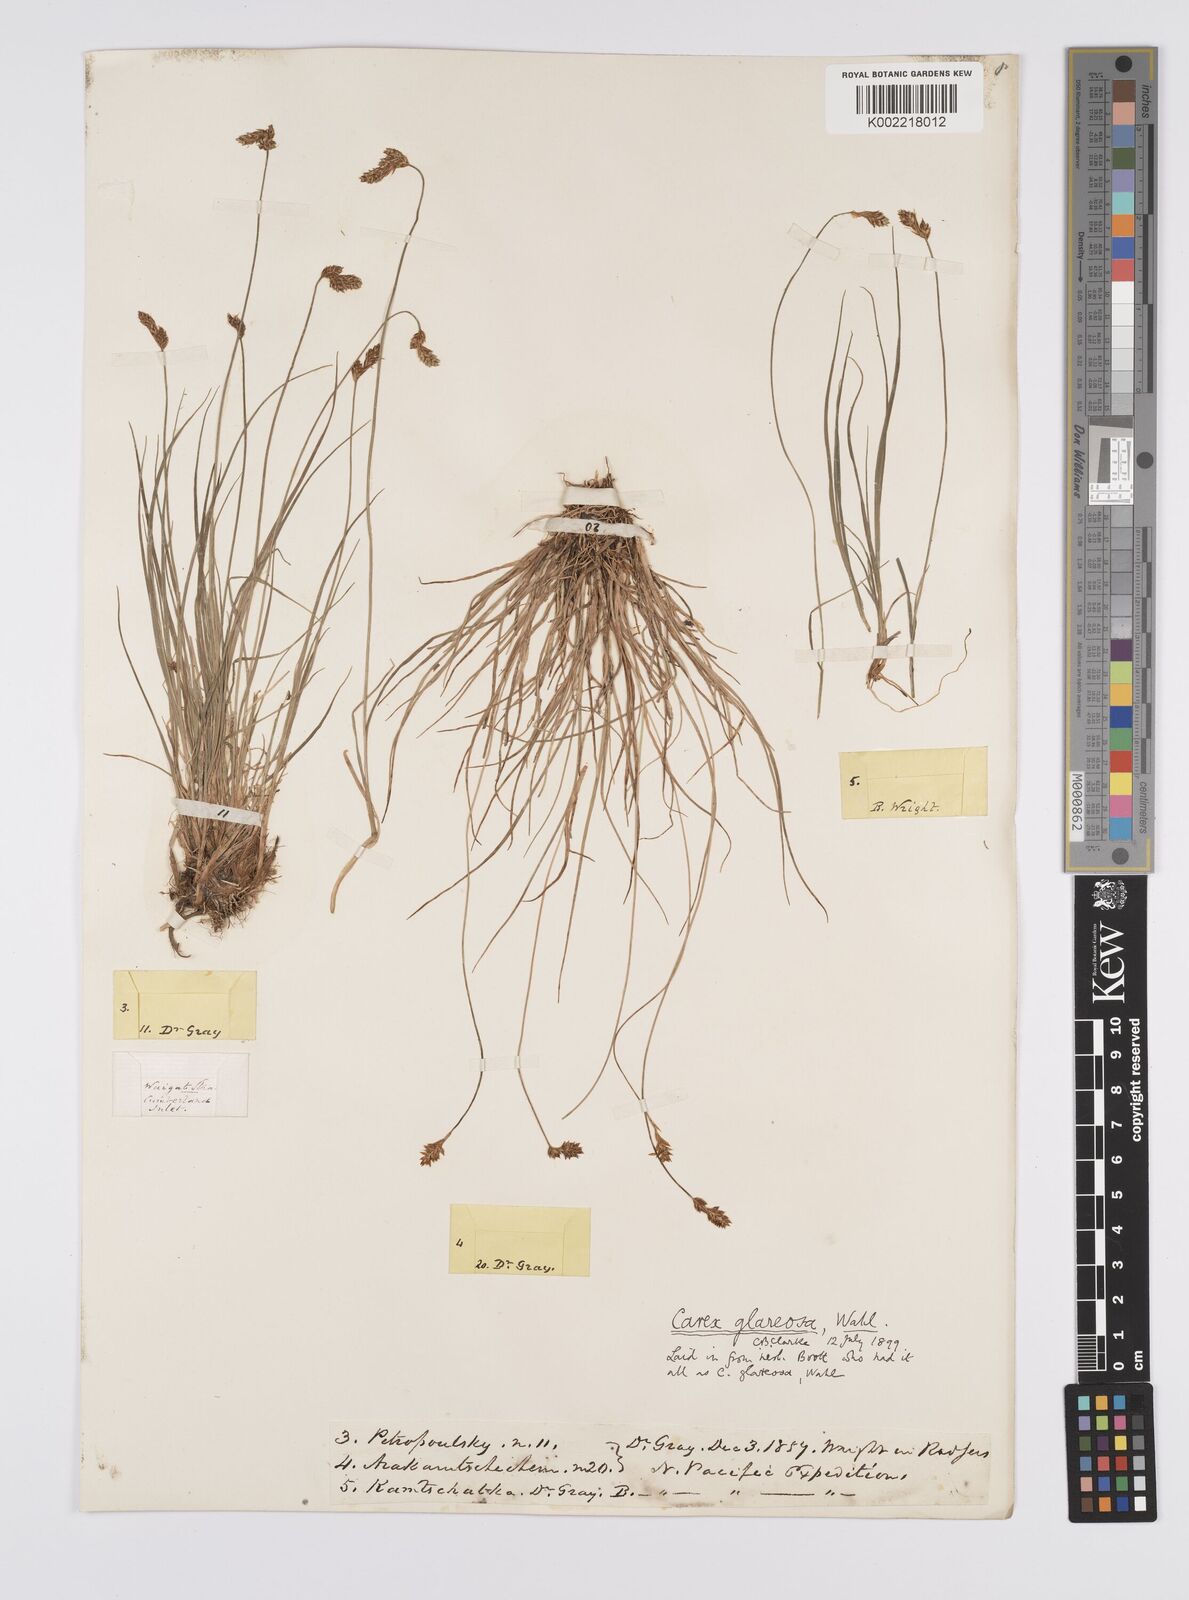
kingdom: Plantae
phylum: Tracheophyta
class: Liliopsida
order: Poales
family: Cyperaceae
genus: Carex
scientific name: Carex glareosa
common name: Clustered sedge
